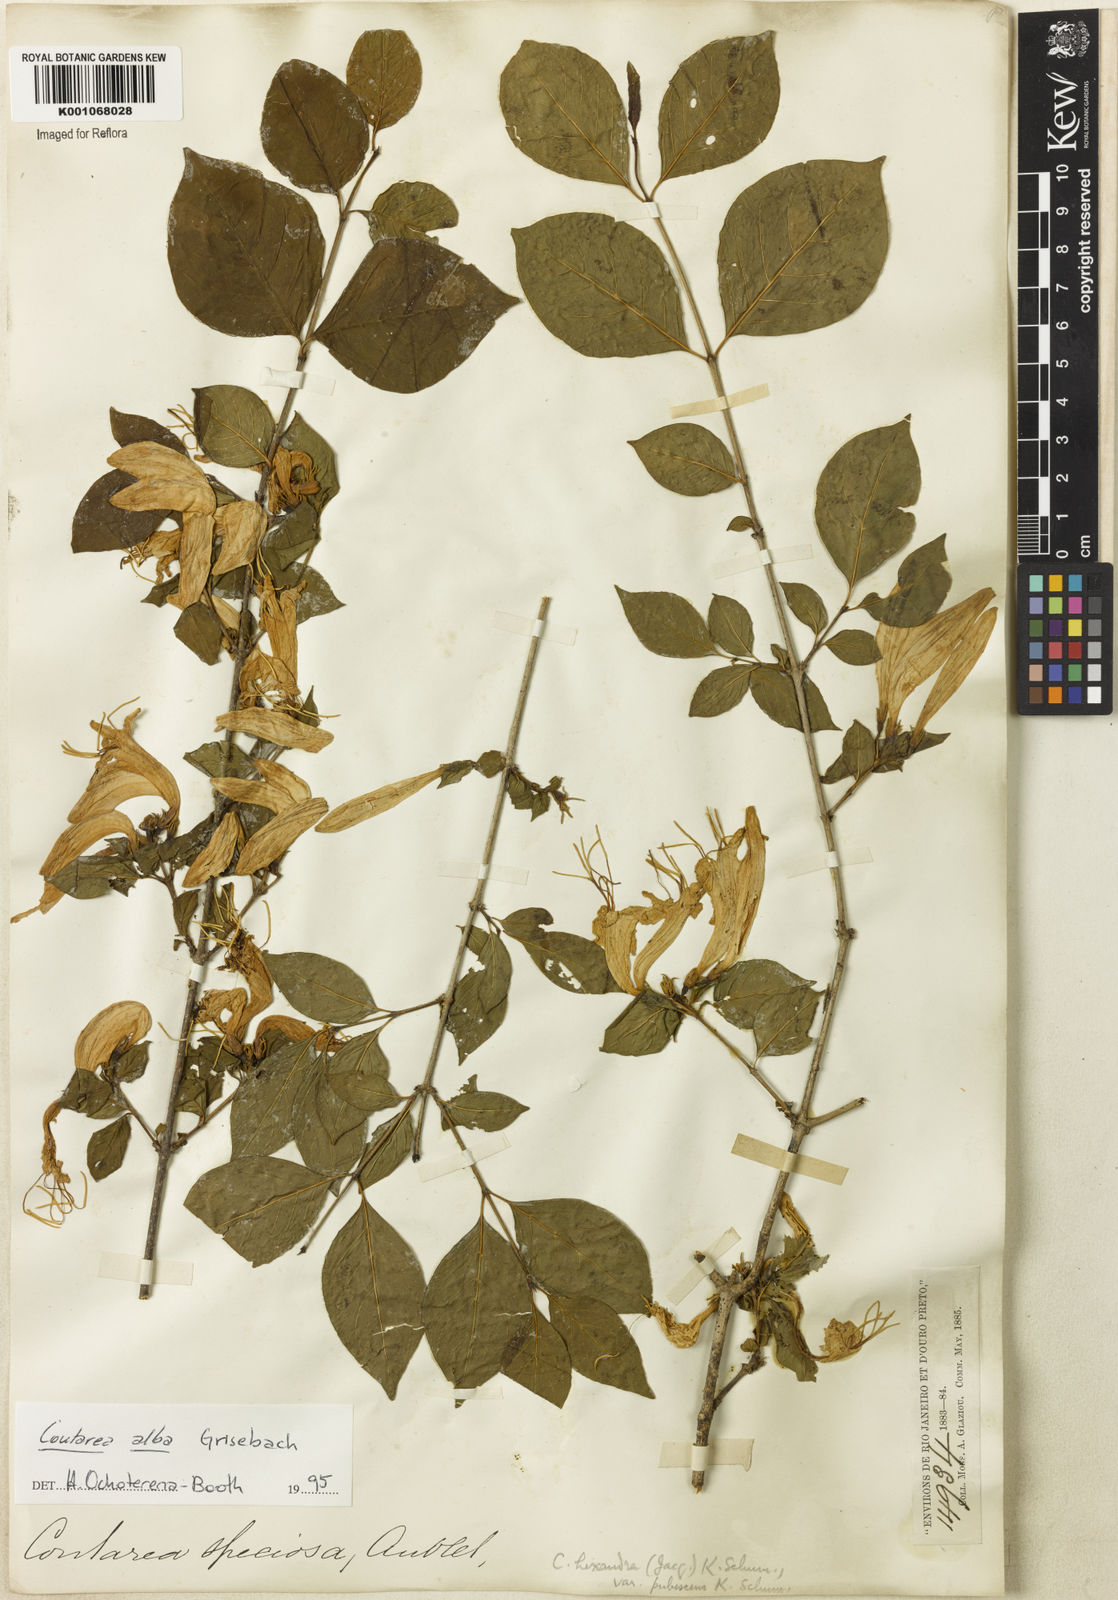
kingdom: Plantae
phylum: Tracheophyta
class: Magnoliopsida
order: Gentianales
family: Rubiaceae
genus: Coutarea
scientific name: Coutarea alba
